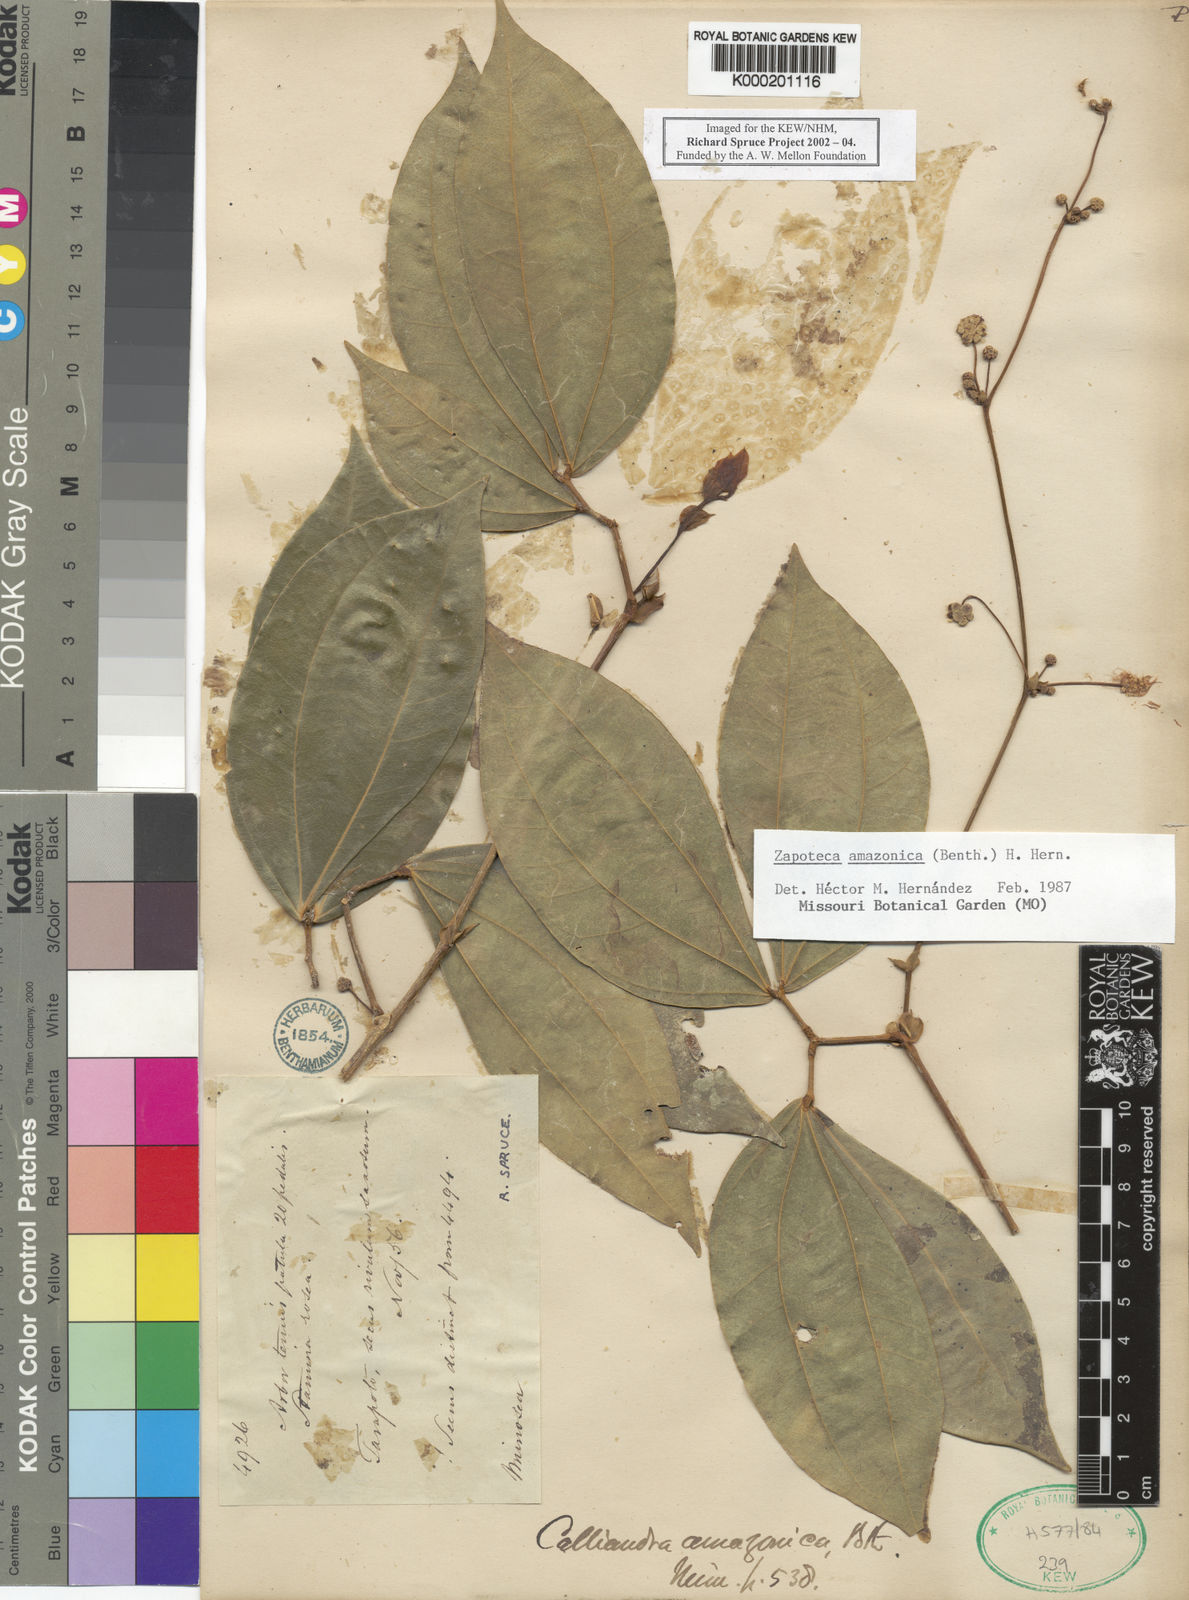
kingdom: Plantae
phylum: Tracheophyta
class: Magnoliopsida
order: Fabales
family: Fabaceae
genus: Zapoteca
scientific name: Zapoteca amazonica
